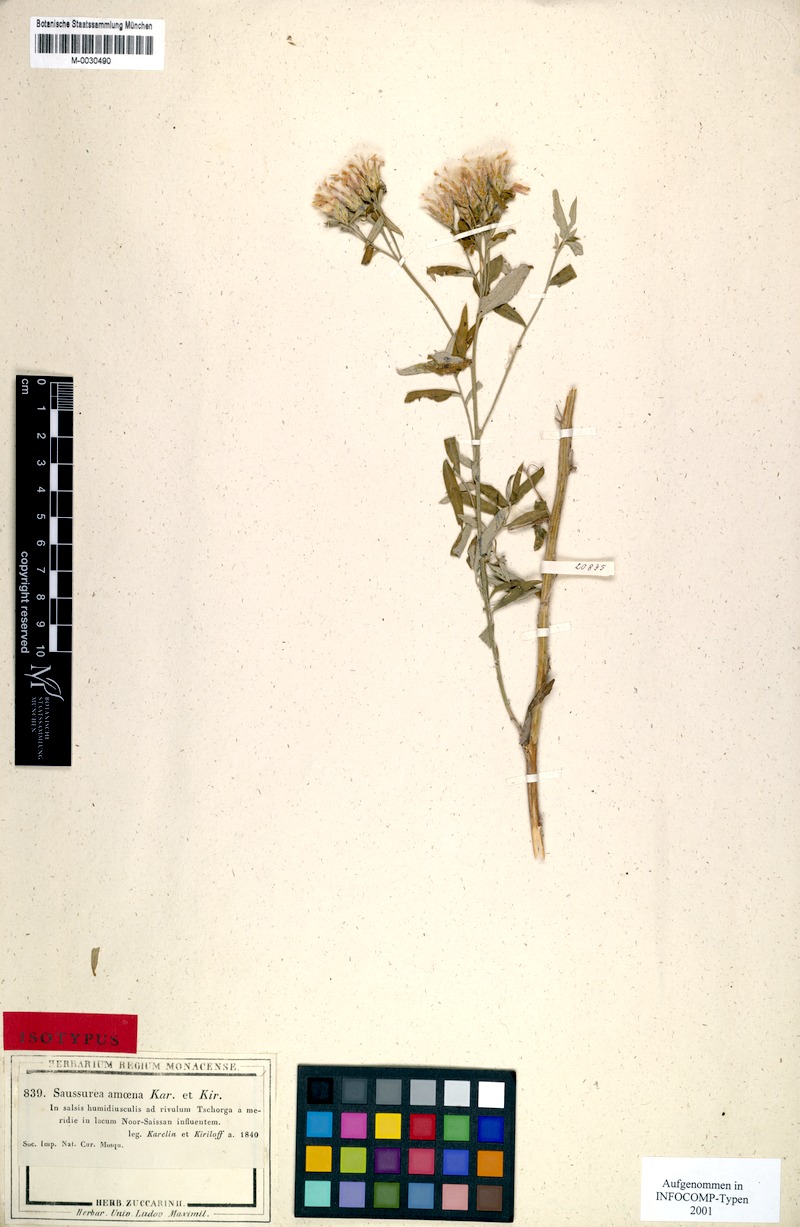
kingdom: Plantae
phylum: Tracheophyta
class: Magnoliopsida
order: Asterales
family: Asteraceae
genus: Saussurea
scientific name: Saussurea elegans
